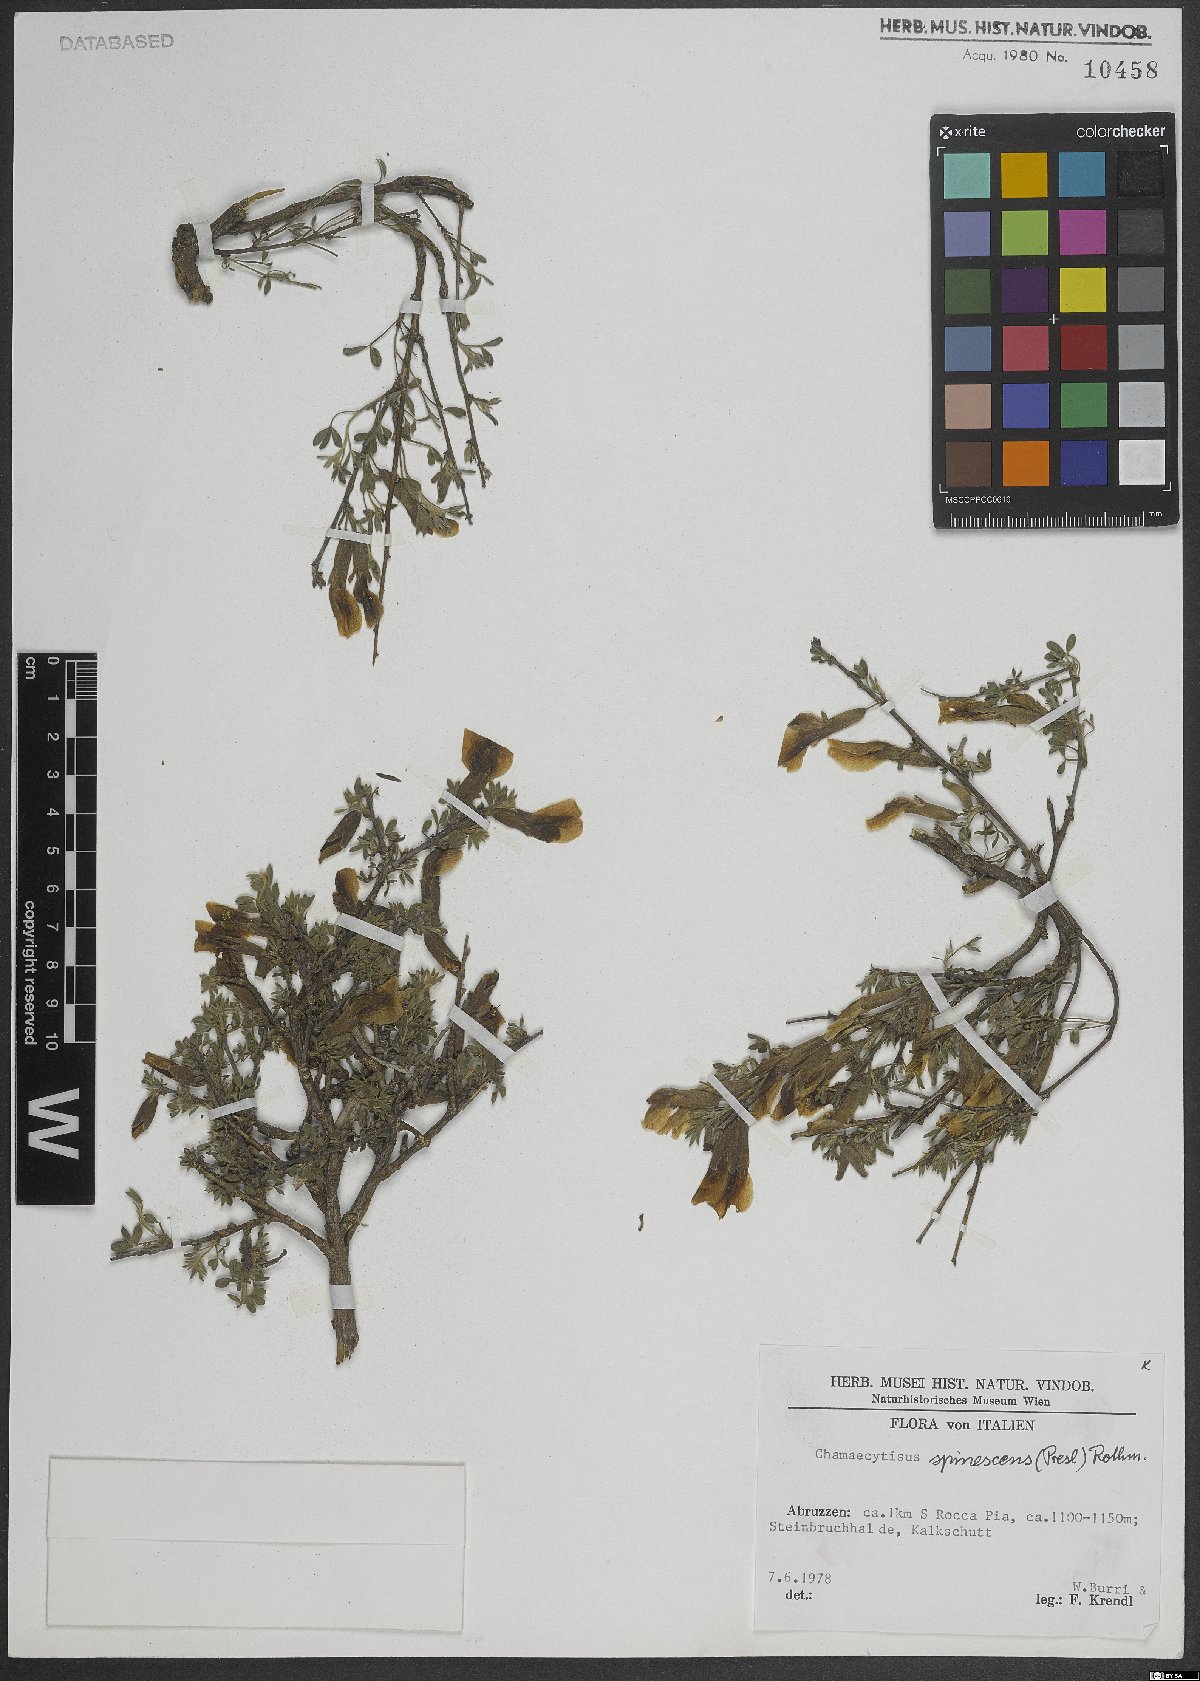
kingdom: Plantae
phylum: Tracheophyta
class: Magnoliopsida
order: Fabales
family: Fabaceae
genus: Chamaecytisus
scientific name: Chamaecytisus spinescens
